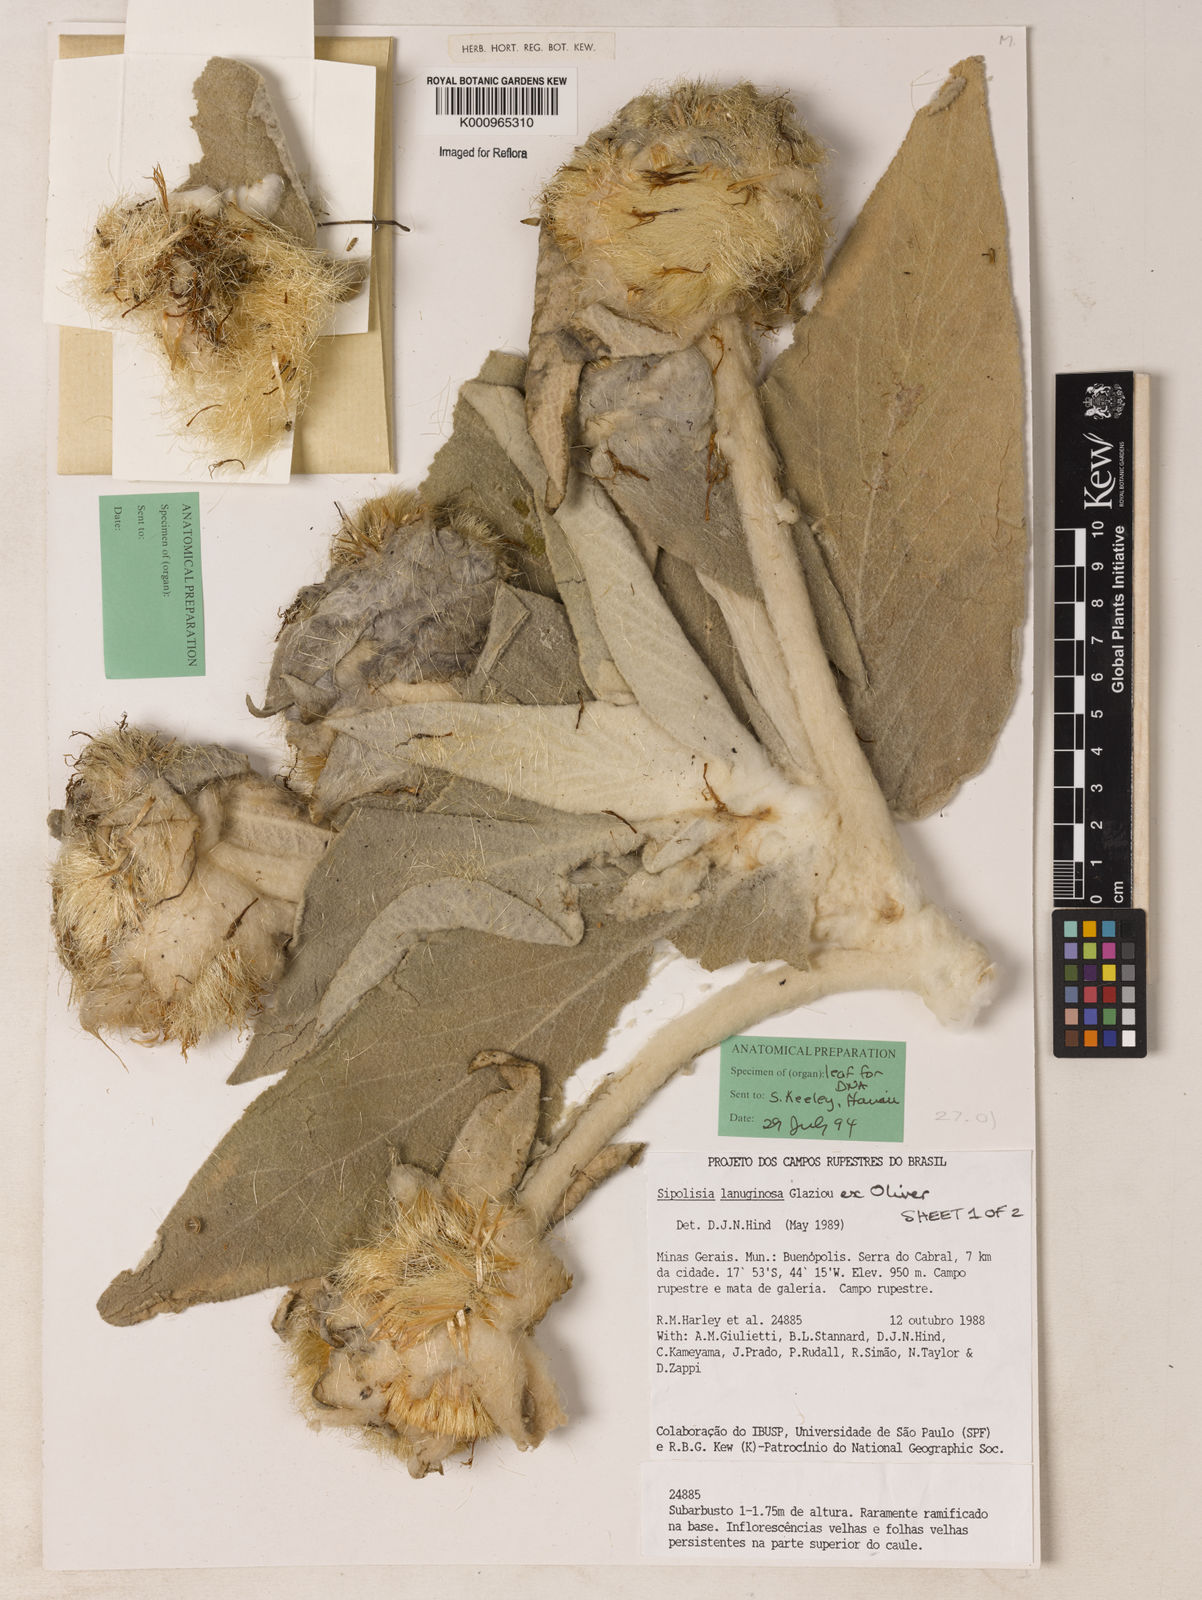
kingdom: Plantae
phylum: Tracheophyta
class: Magnoliopsida
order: Asterales
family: Asteraceae
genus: Heterocoma
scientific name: Heterocoma lanuginosa
